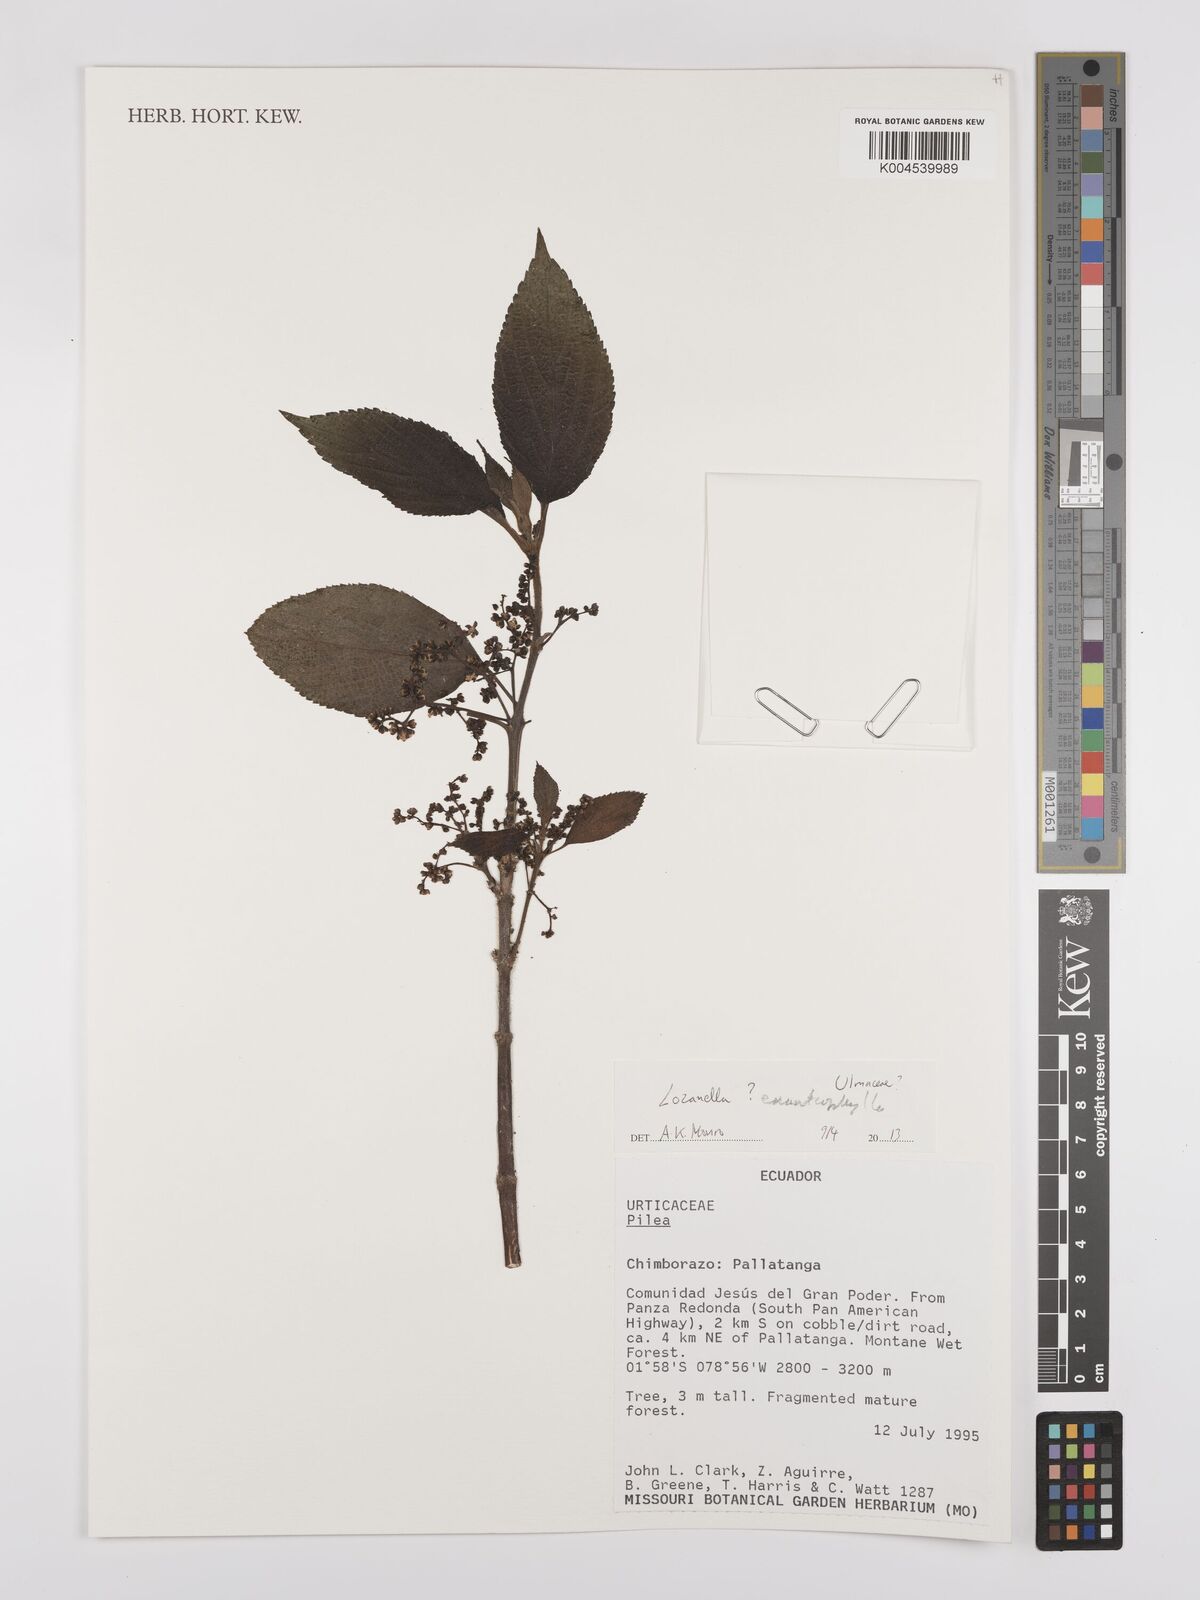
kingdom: Plantae
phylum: Tracheophyta
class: Magnoliopsida
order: Rosales
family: Cannabaceae
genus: Lozanella
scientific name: Lozanella enantiophylla
